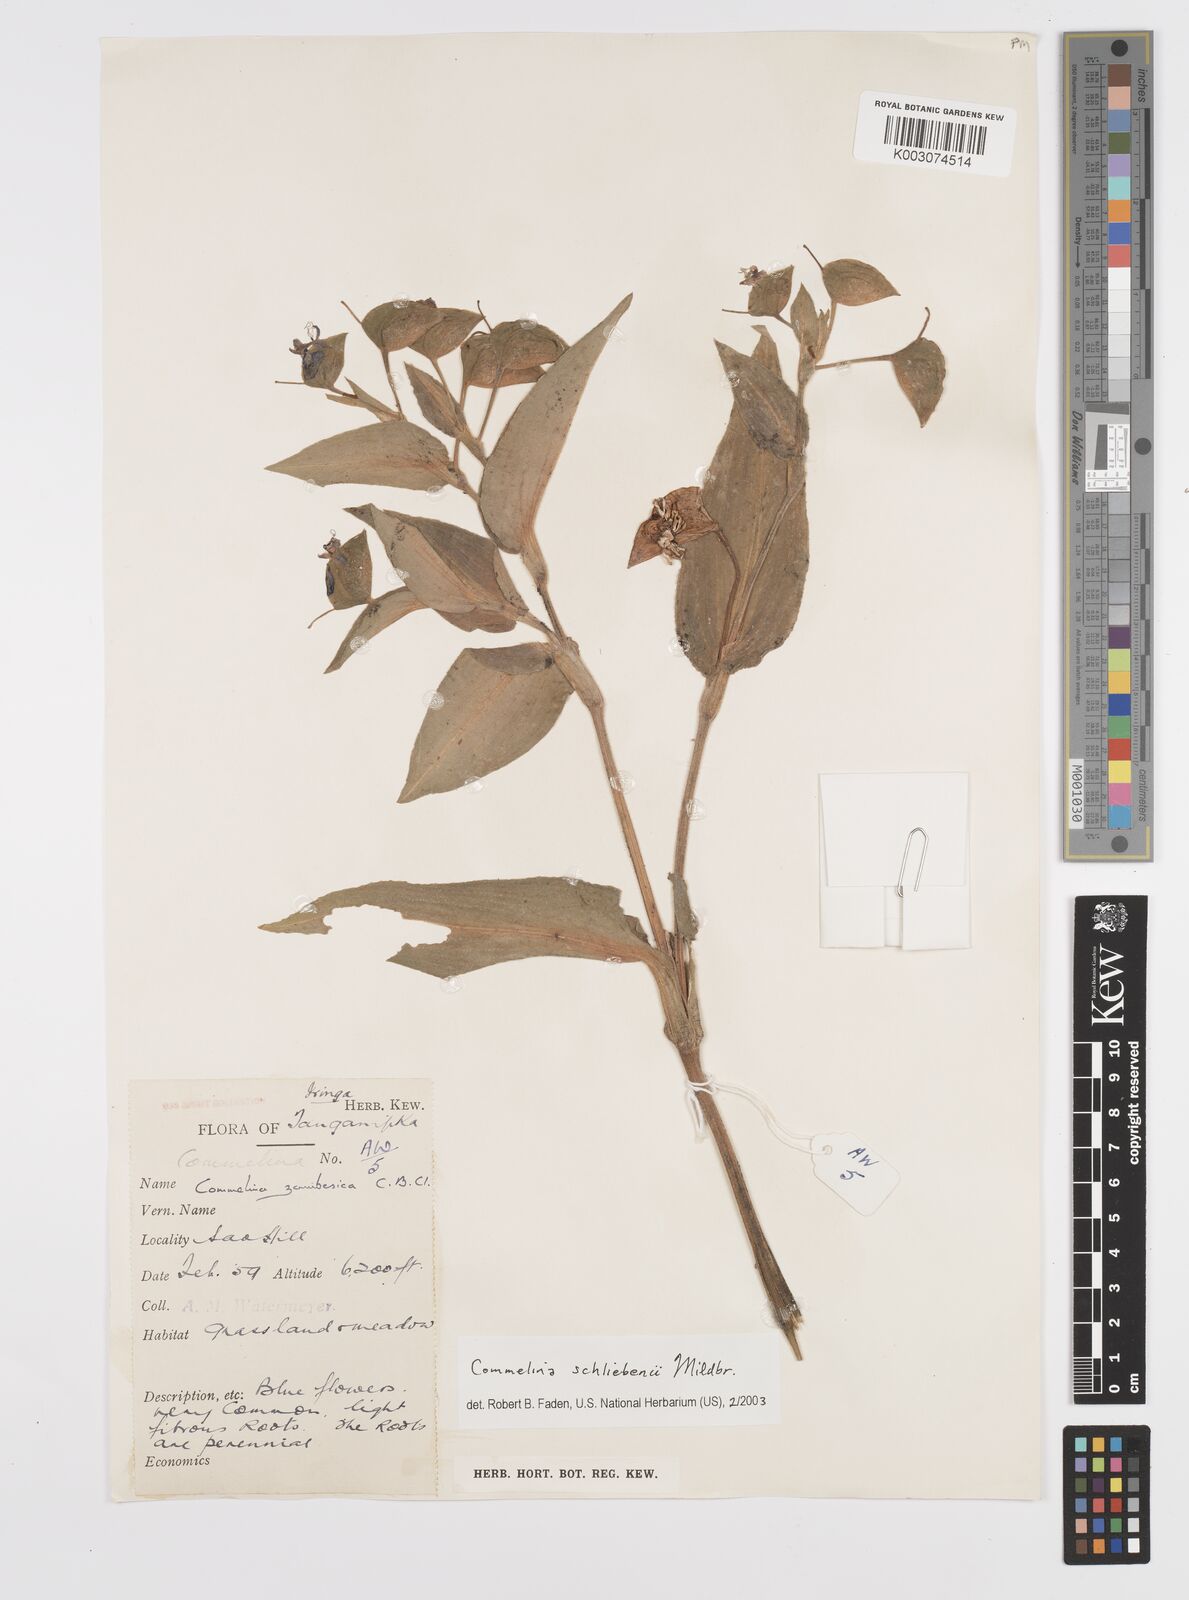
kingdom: Plantae
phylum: Tracheophyta
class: Liliopsida
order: Commelinales
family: Commelinaceae
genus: Commelina
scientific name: Commelina schliebenii
